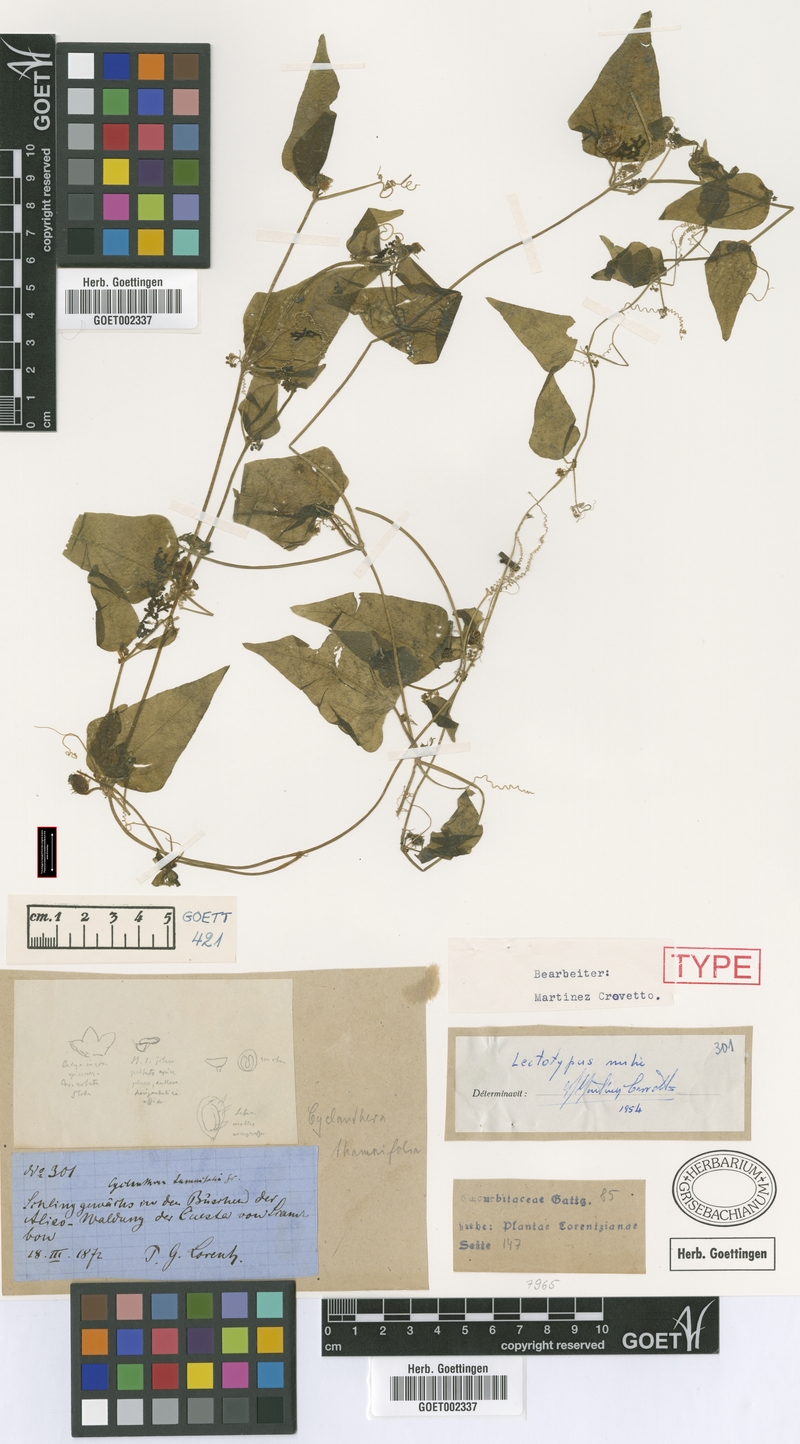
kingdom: Plantae
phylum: Tracheophyta
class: Magnoliopsida
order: Cucurbitales
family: Cucurbitaceae
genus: Cyclanthera
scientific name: Cyclanthera tamnifolia
